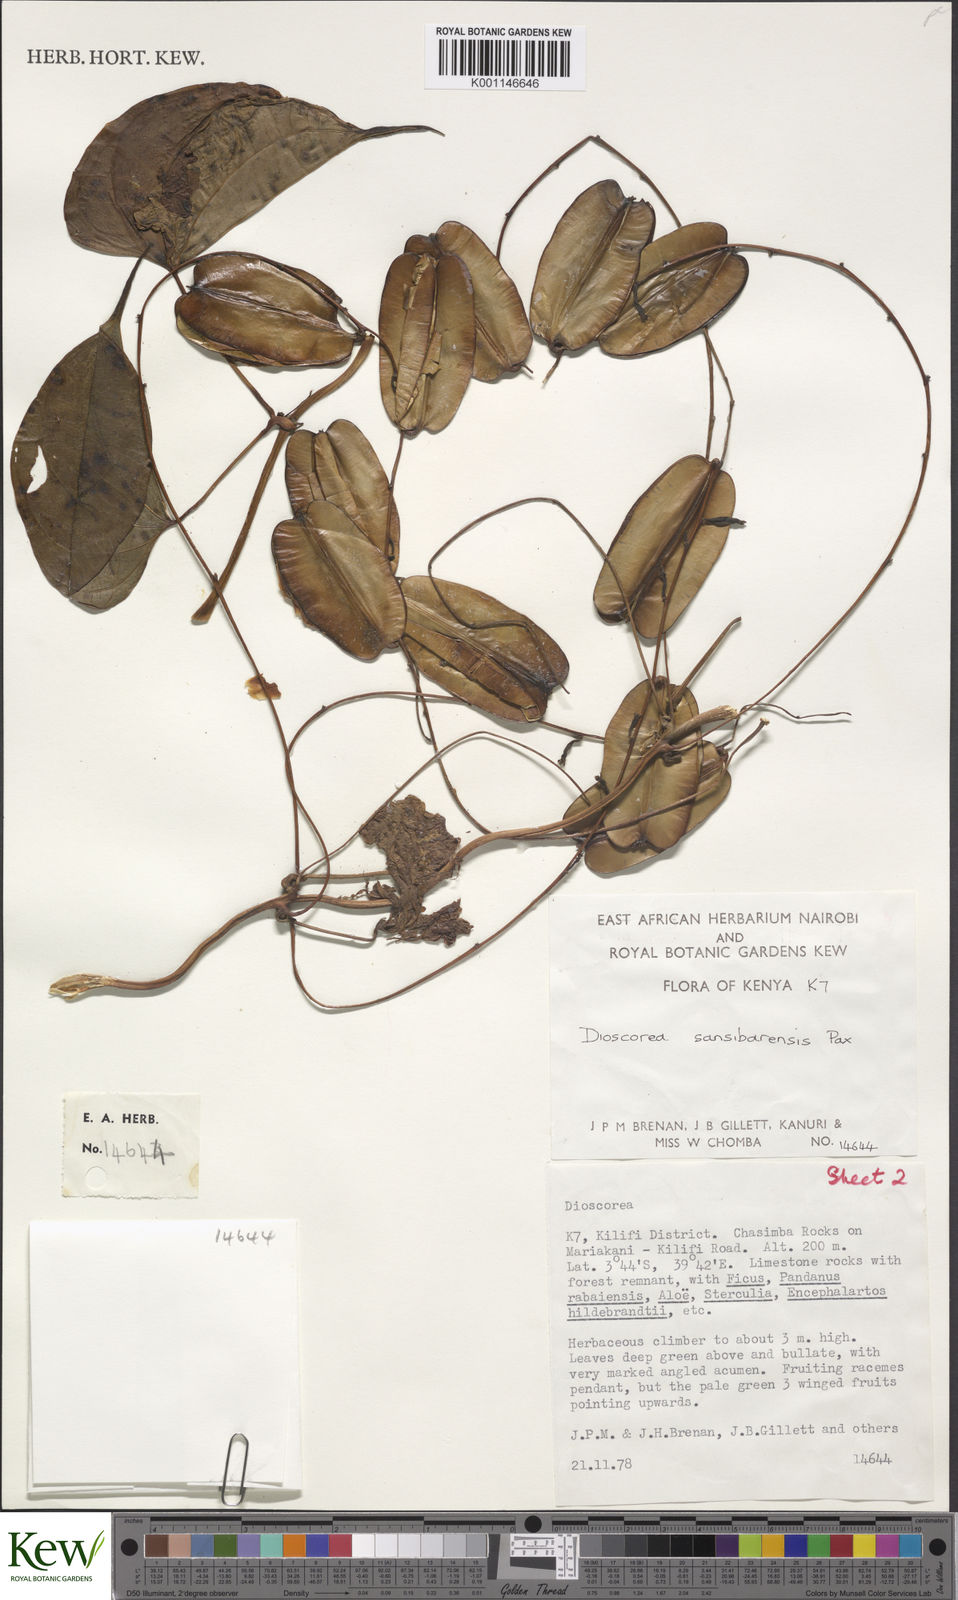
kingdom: Plantae
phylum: Tracheophyta
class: Liliopsida
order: Dioscoreales
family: Dioscoreaceae
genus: Dioscorea
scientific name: Dioscorea sansibarensis
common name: Zanzibar yam
